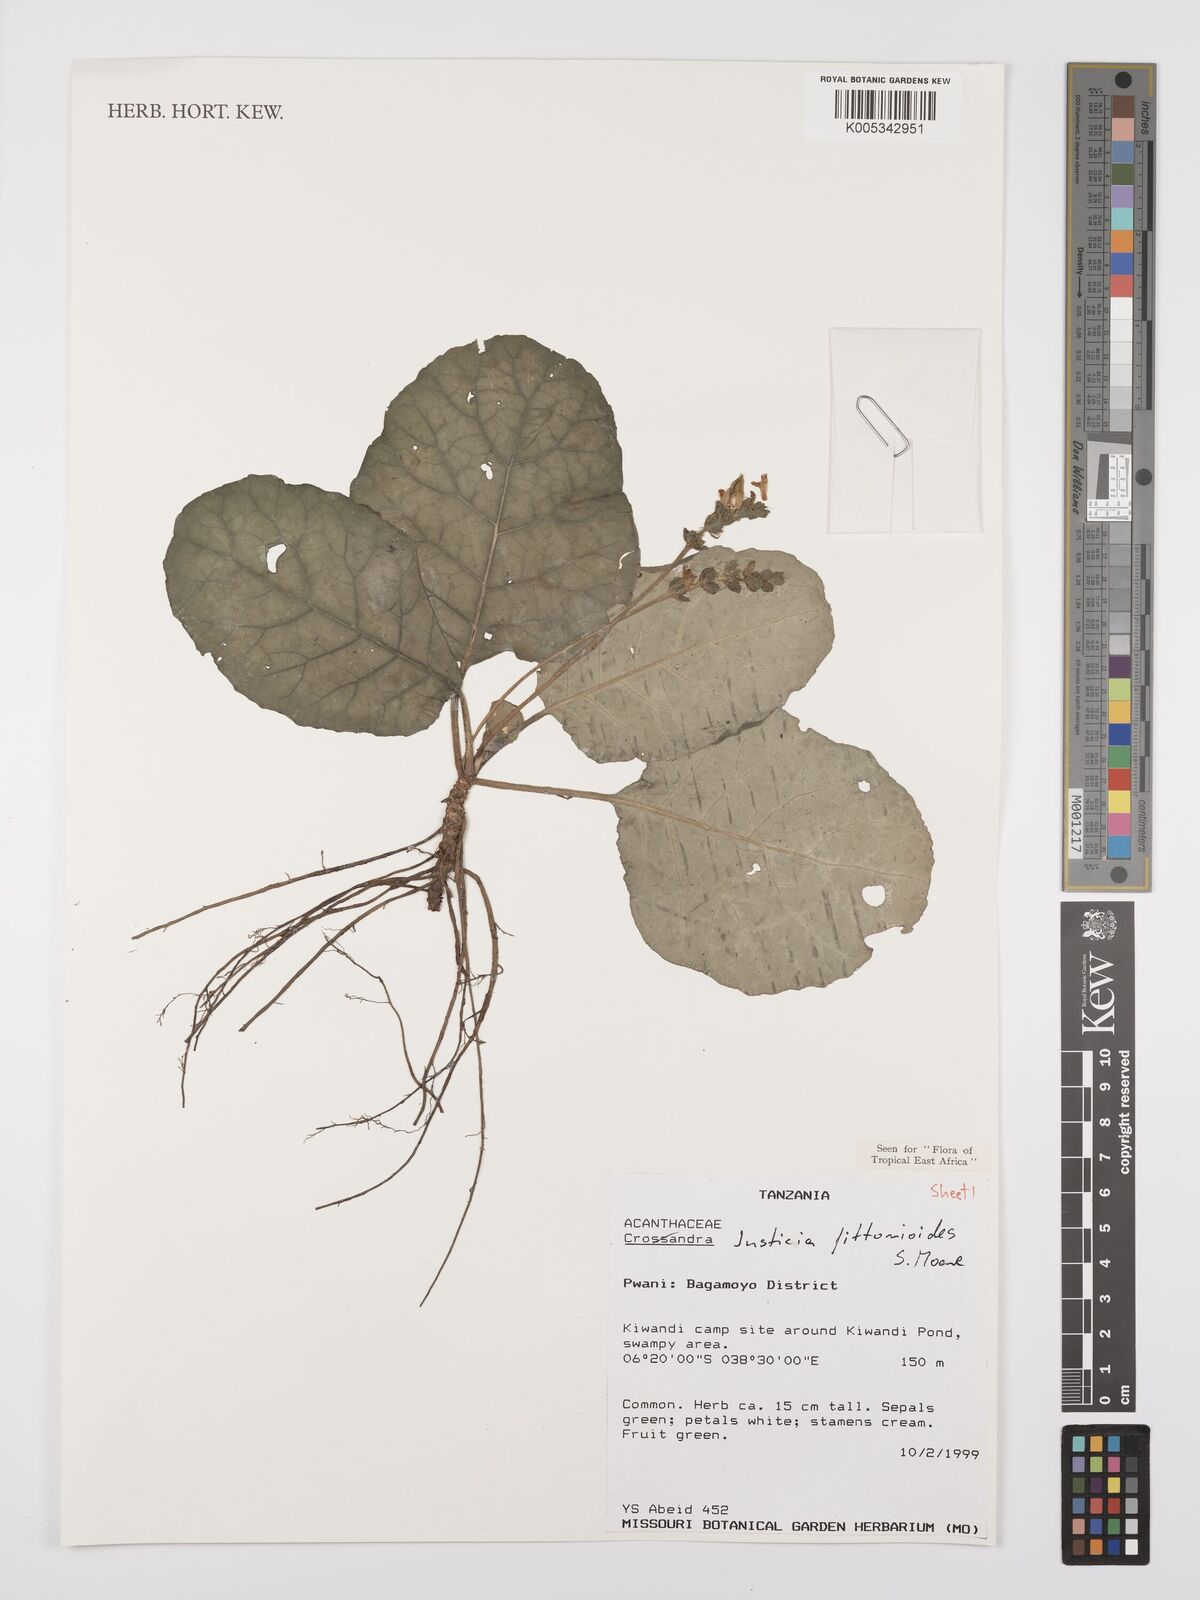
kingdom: Plantae
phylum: Tracheophyta
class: Magnoliopsida
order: Lamiales
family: Acanthaceae
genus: Justicia
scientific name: Justicia
